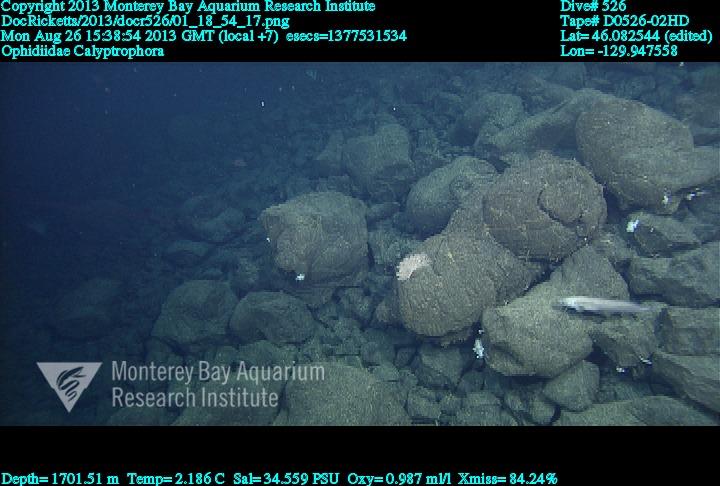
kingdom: Animalia
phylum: Cnidaria
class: Anthozoa
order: Scleralcyonacea
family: Primnoidae
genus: Calyptrophora
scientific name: Calyptrophora
